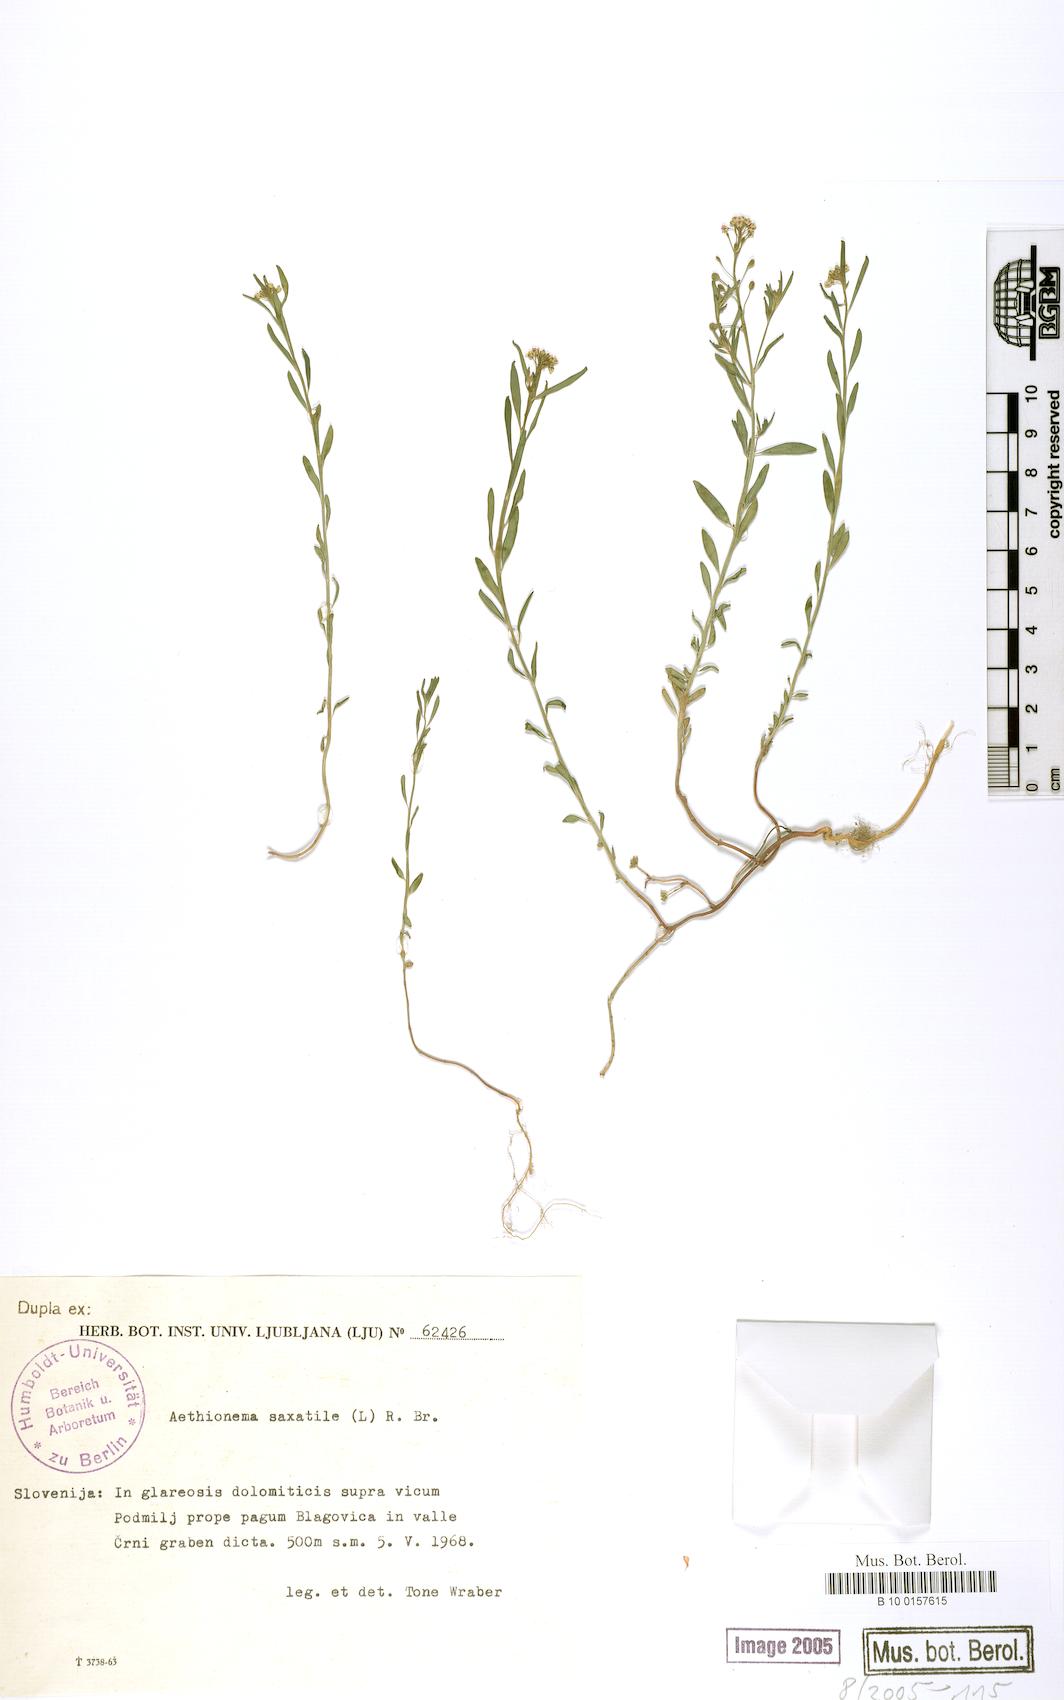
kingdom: Plantae
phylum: Tracheophyta
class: Magnoliopsida
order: Brassicales
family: Brassicaceae
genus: Aethionema
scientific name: Aethionema saxatile
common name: Burnt candytuft
